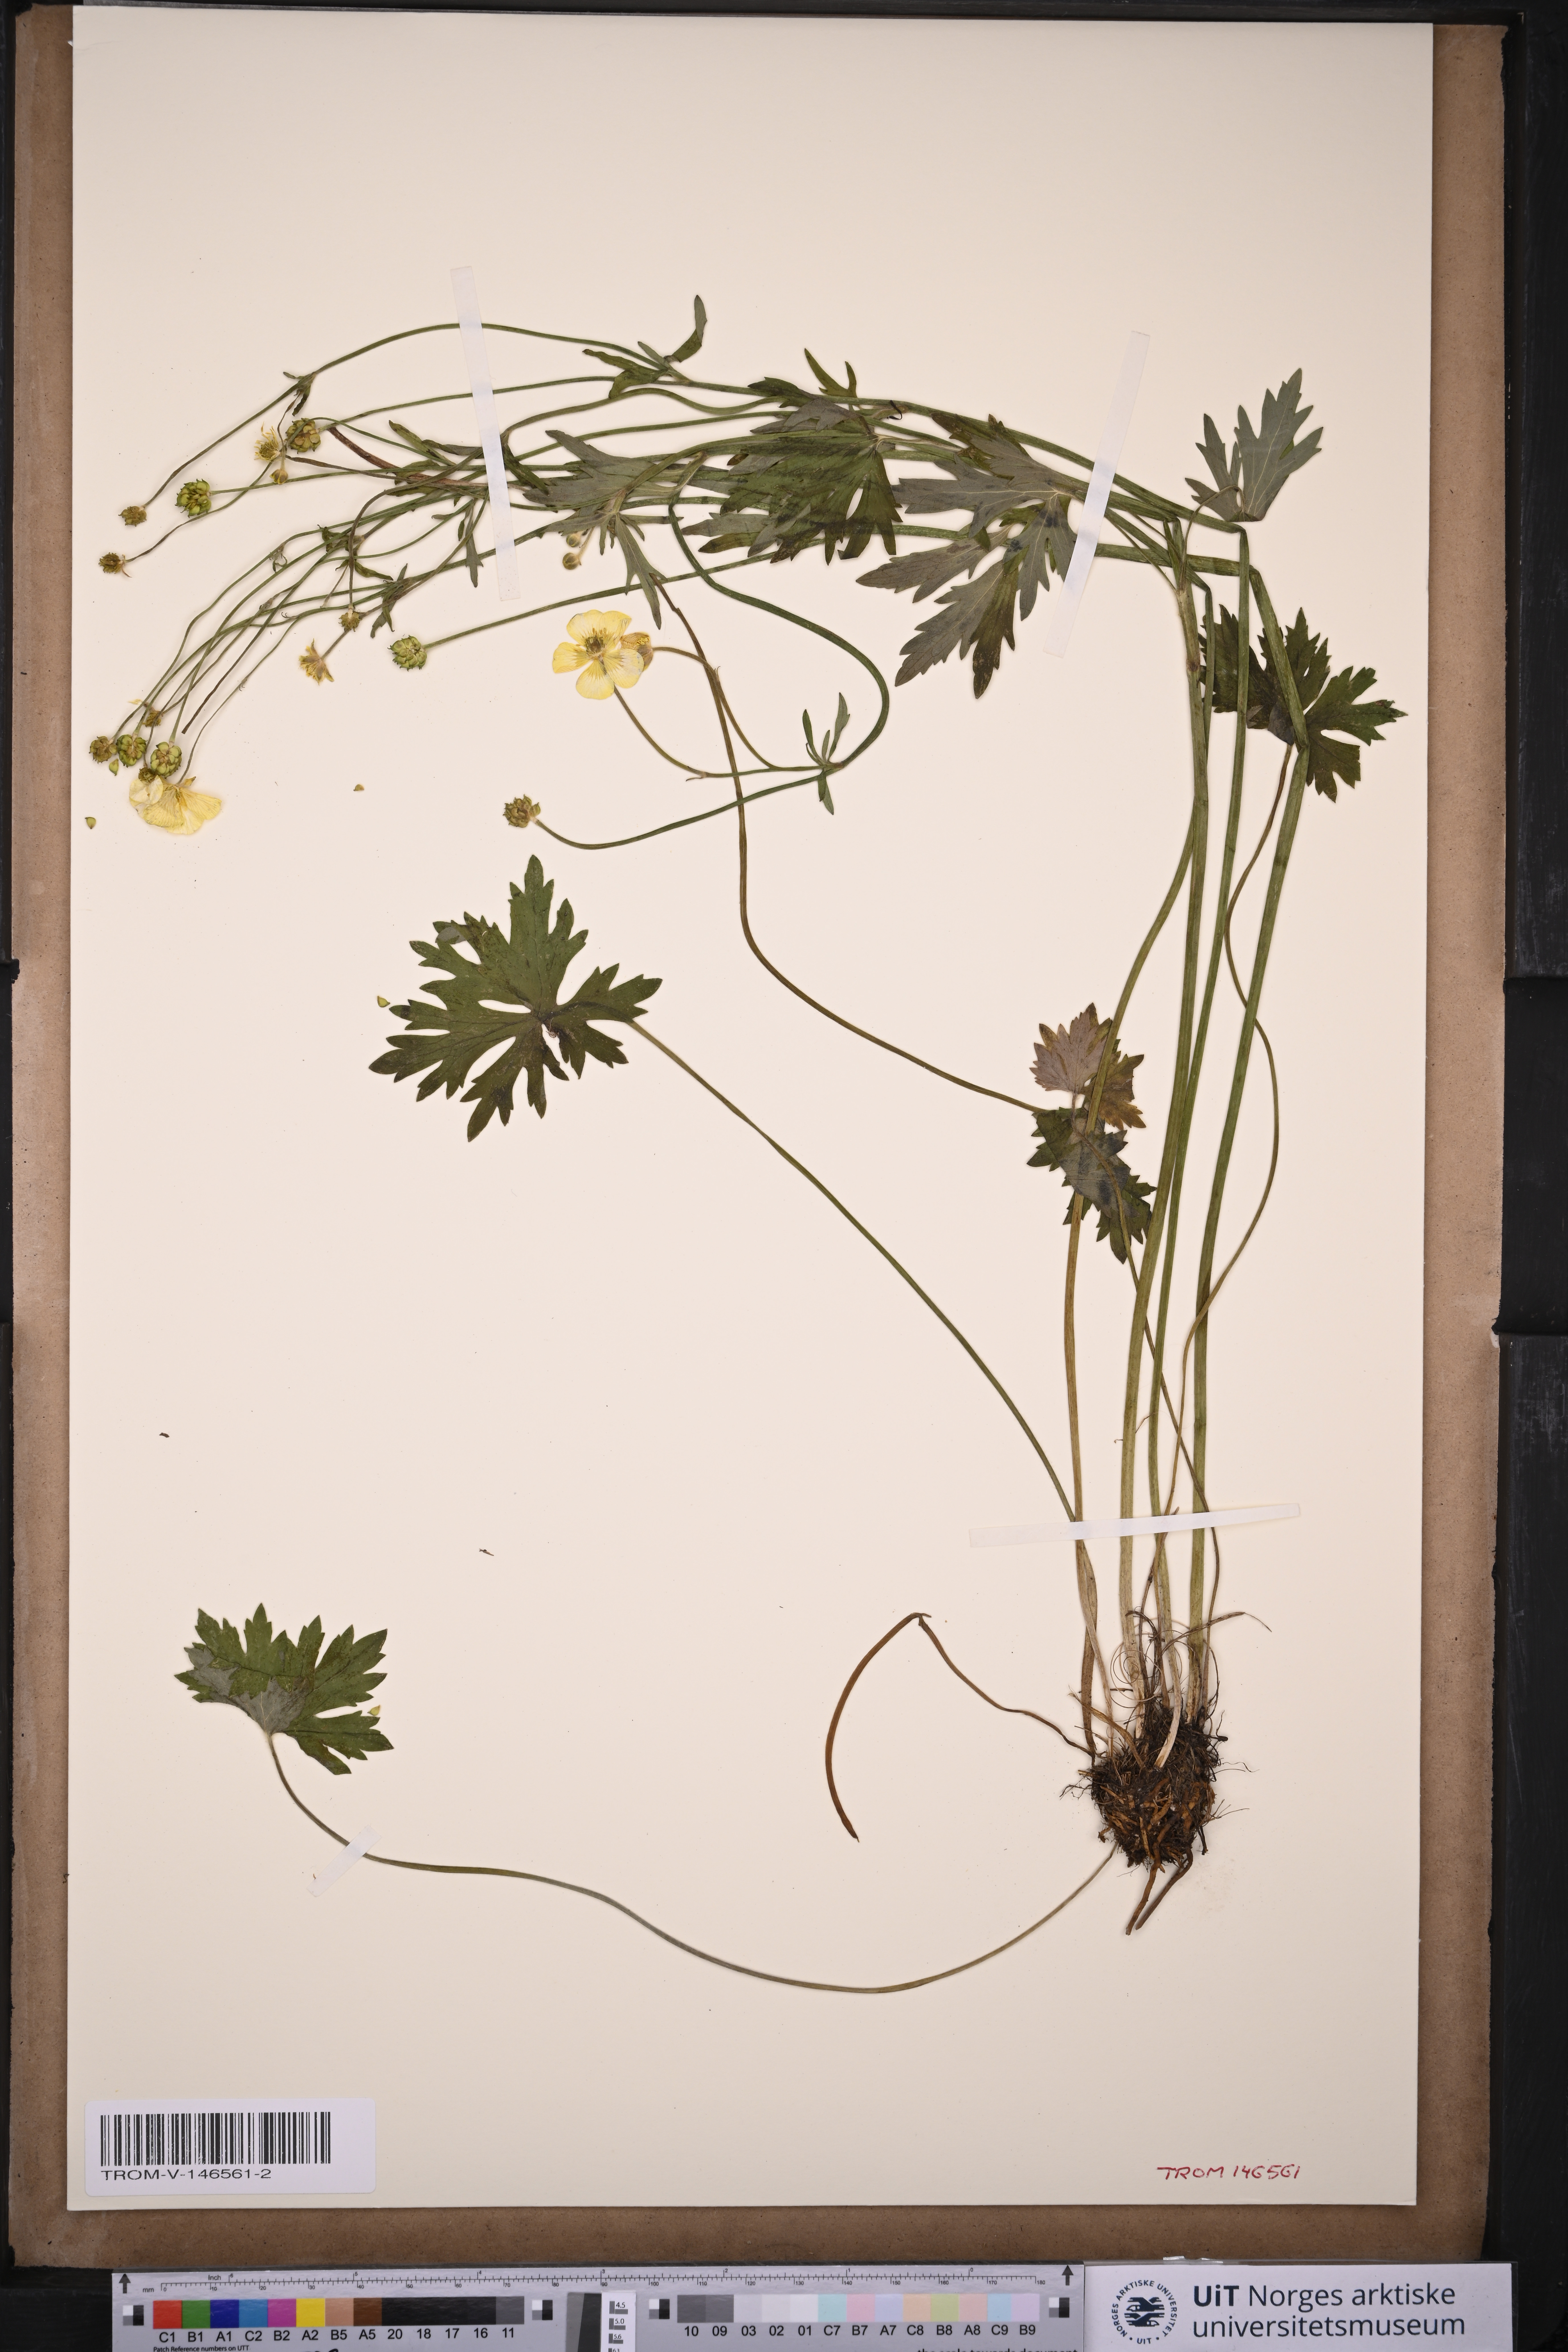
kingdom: Plantae
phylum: Tracheophyta
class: Magnoliopsida
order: Ranunculales
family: Ranunculaceae
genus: Ranunculus
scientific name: Ranunculus acris
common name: Meadow buttercup
